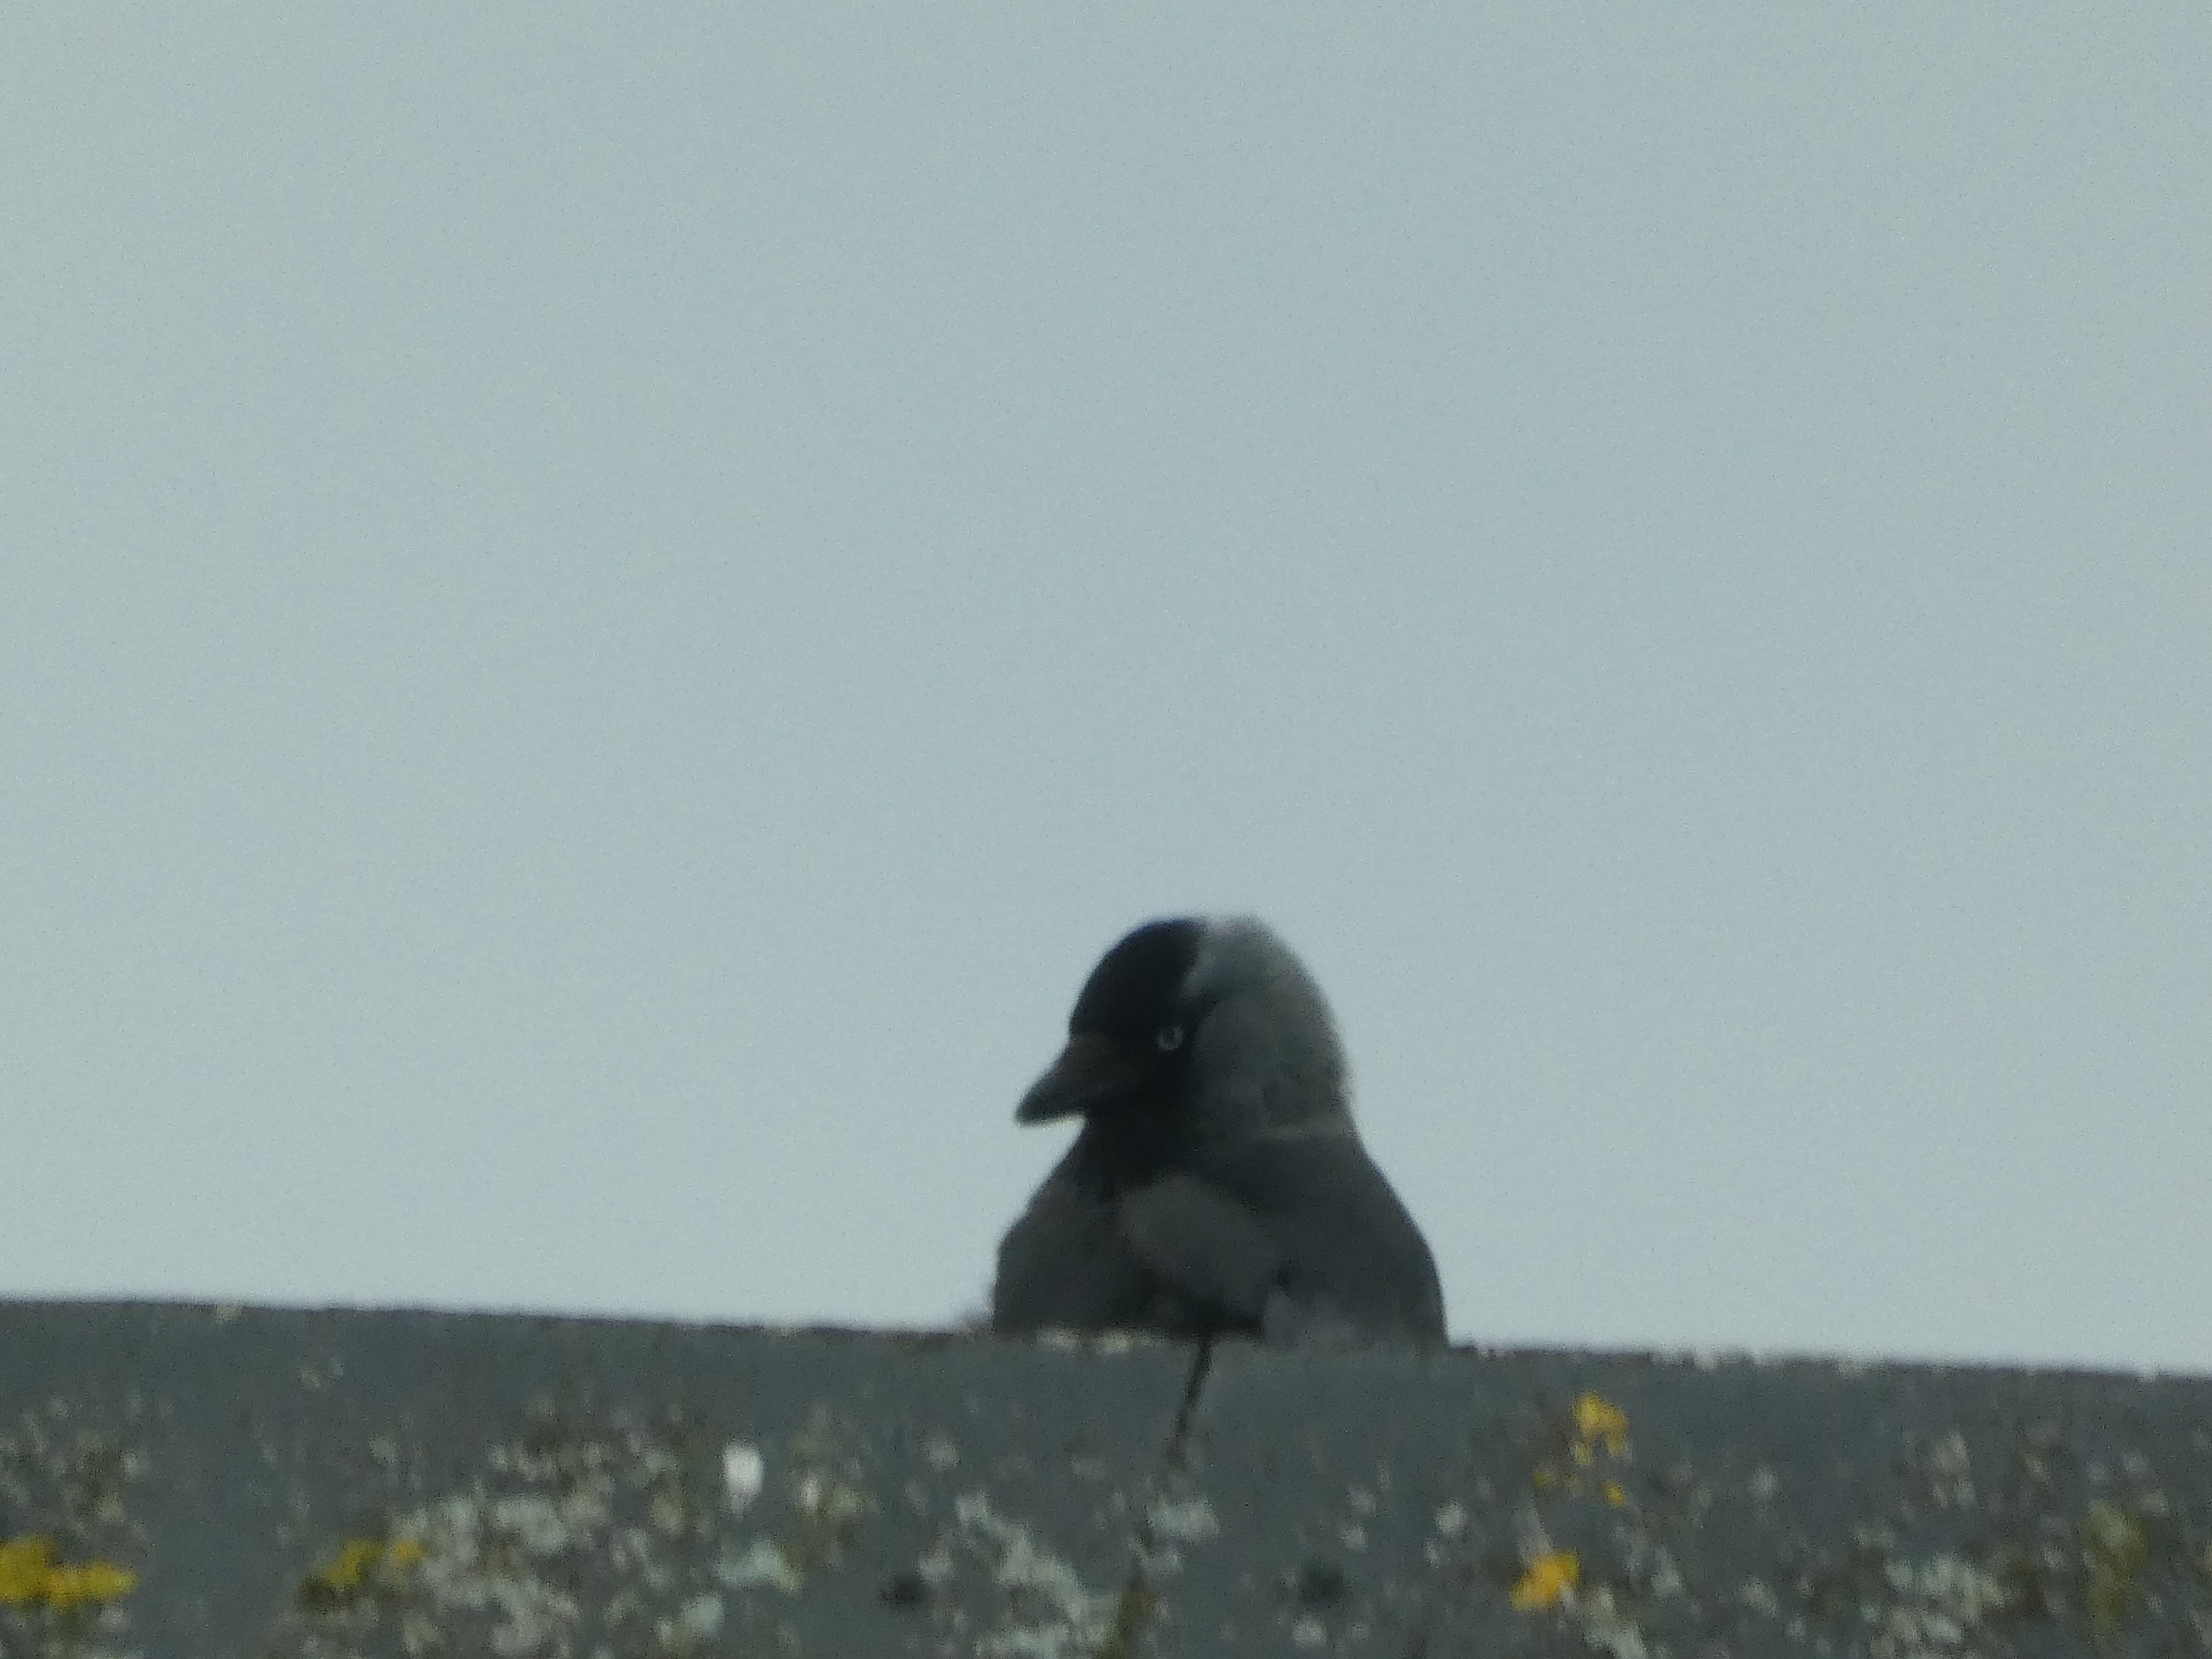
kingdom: Animalia
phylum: Chordata
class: Aves
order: Passeriformes
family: Corvidae
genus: Coloeus
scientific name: Coloeus monedula
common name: Allike
